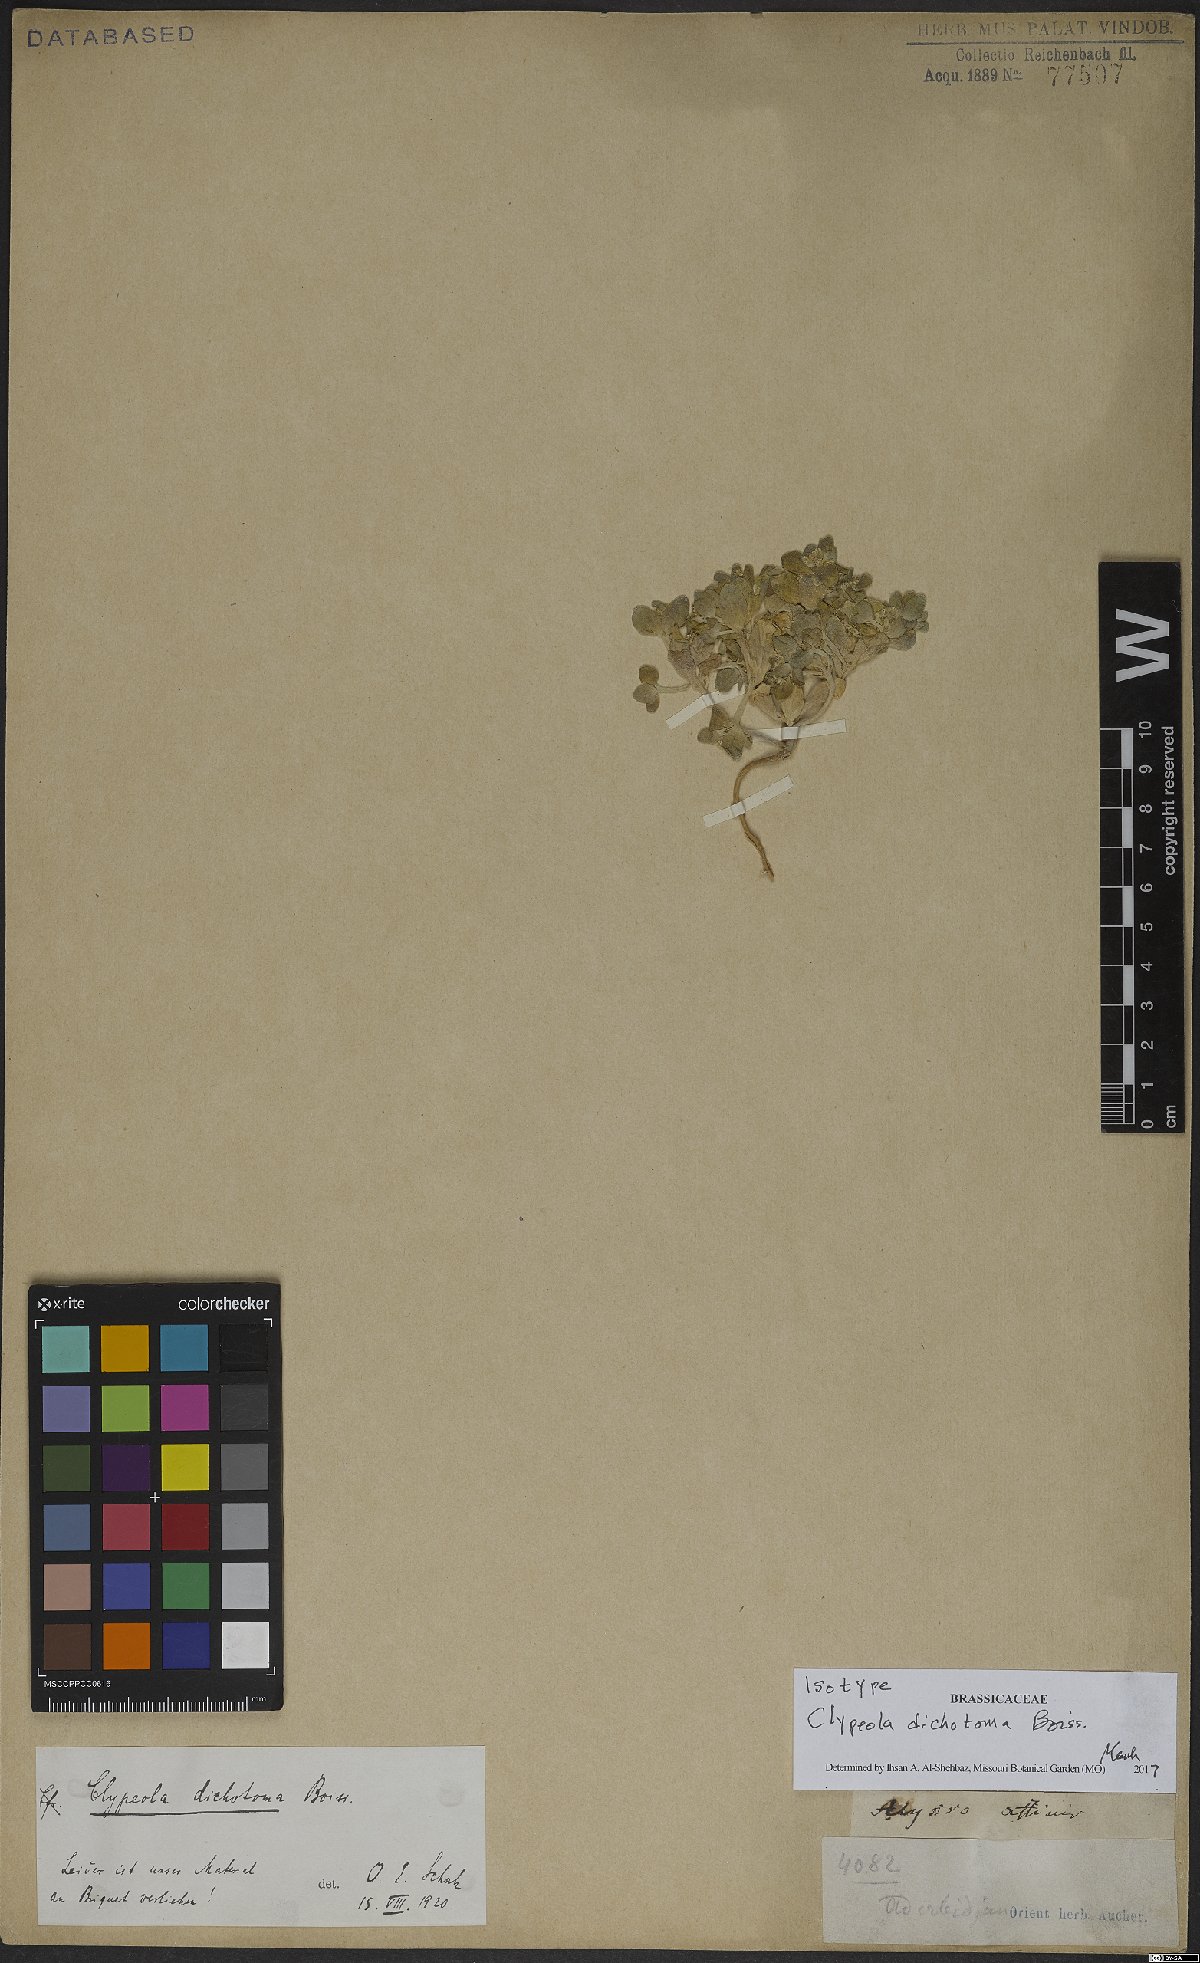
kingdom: Plantae
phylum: Tracheophyta
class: Magnoliopsida
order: Brassicales
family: Brassicaceae
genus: Clypeola
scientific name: Clypeola dichotoma
